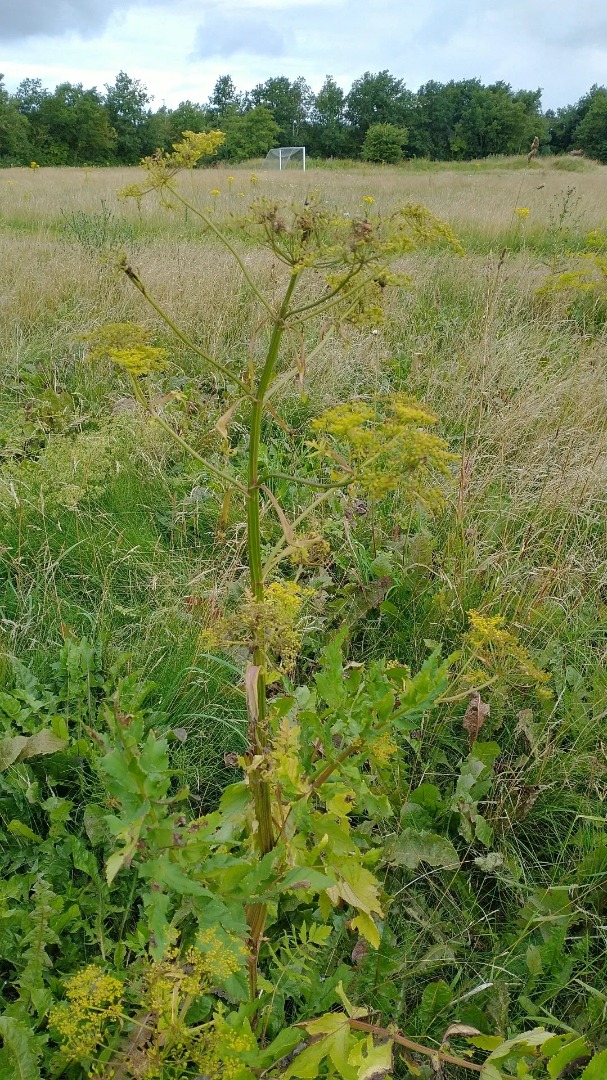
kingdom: Plantae
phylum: Tracheophyta
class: Magnoliopsida
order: Apiales
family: Apiaceae
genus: Pastinaca
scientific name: Pastinaca sativa
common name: Pastinak
